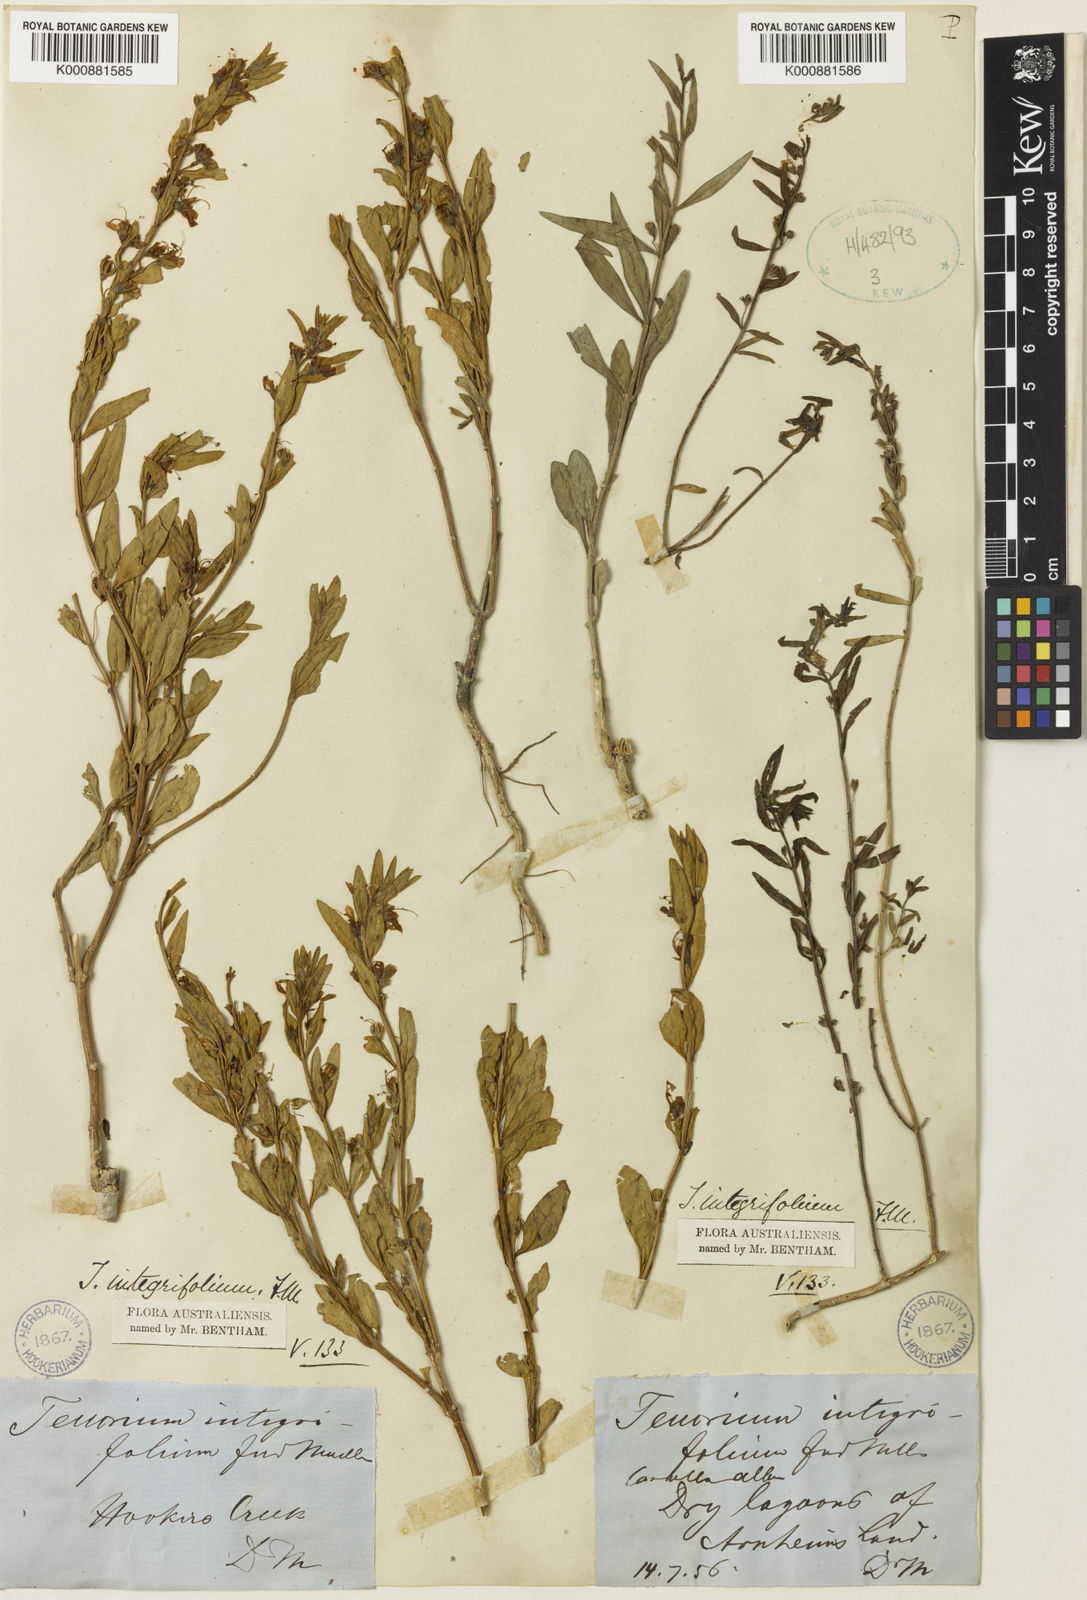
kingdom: Plantae
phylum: Tracheophyta
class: Magnoliopsida
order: Lamiales
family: Lamiaceae
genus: Teucrium
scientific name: Teucrium integrifolium
